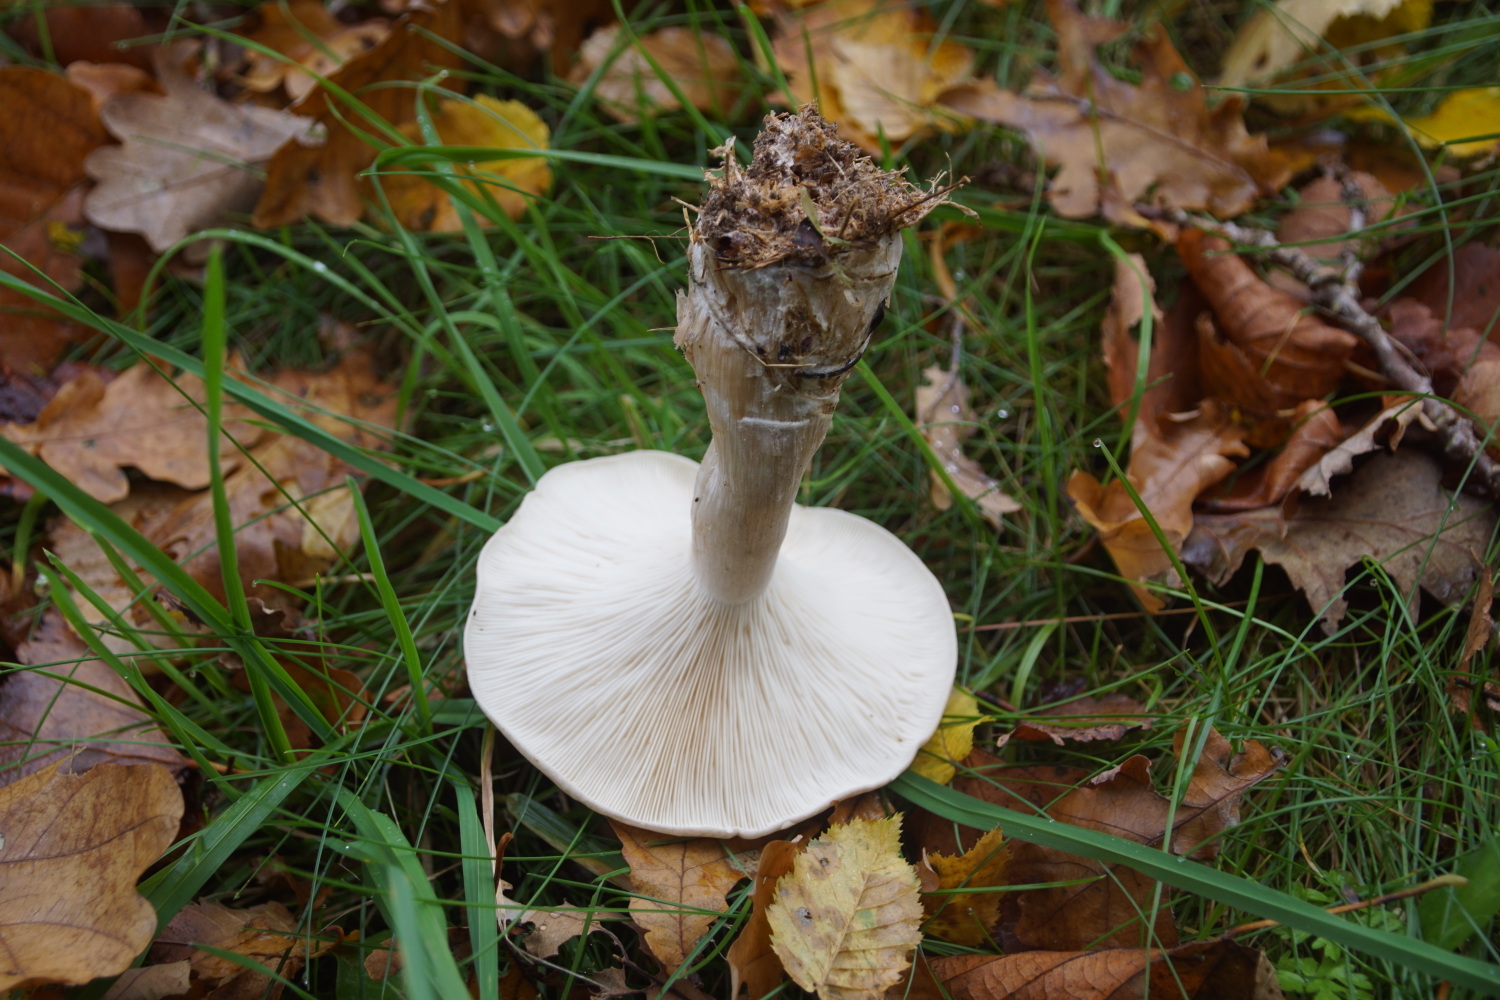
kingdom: Fungi
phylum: Basidiomycota
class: Agaricomycetes
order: Agaricales
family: Tricholomataceae
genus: Clitocybe
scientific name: Clitocybe nebularis
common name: tåge-tragthat
